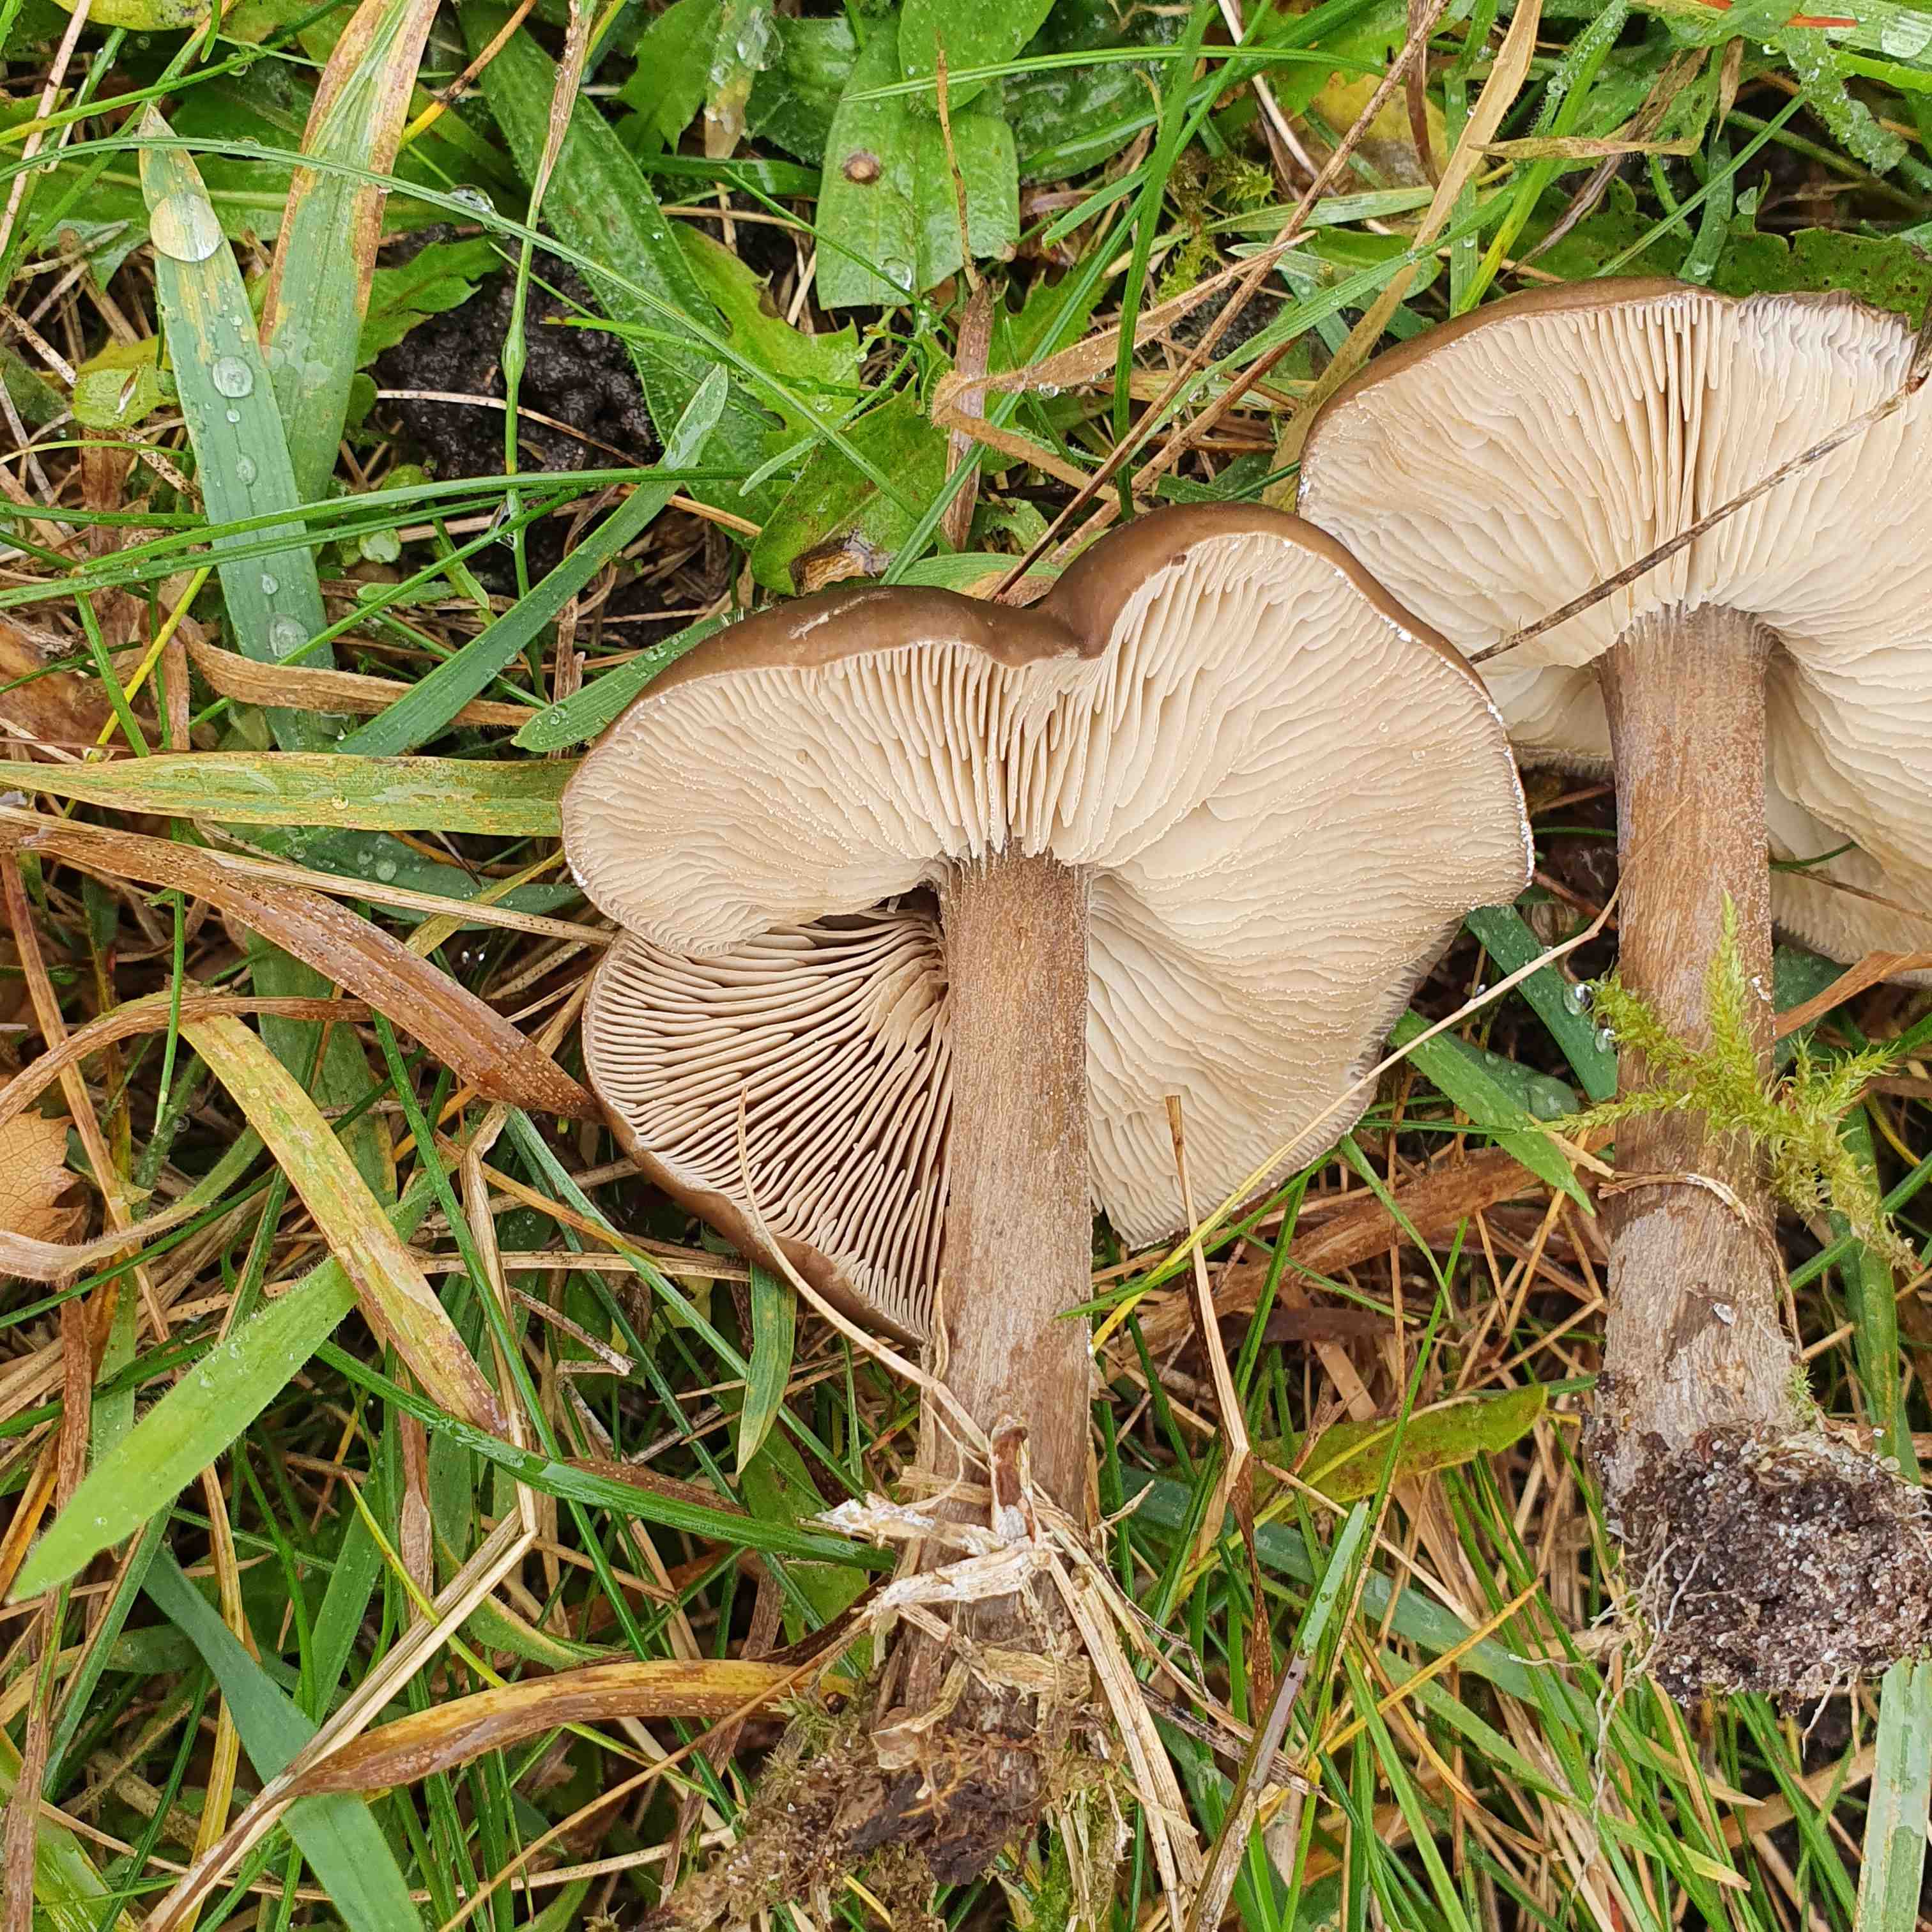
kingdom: Fungi
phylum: Basidiomycota
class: Agaricomycetes
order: Agaricales
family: Tricholomataceae
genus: Melanoleuca
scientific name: Melanoleuca
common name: munkehat
